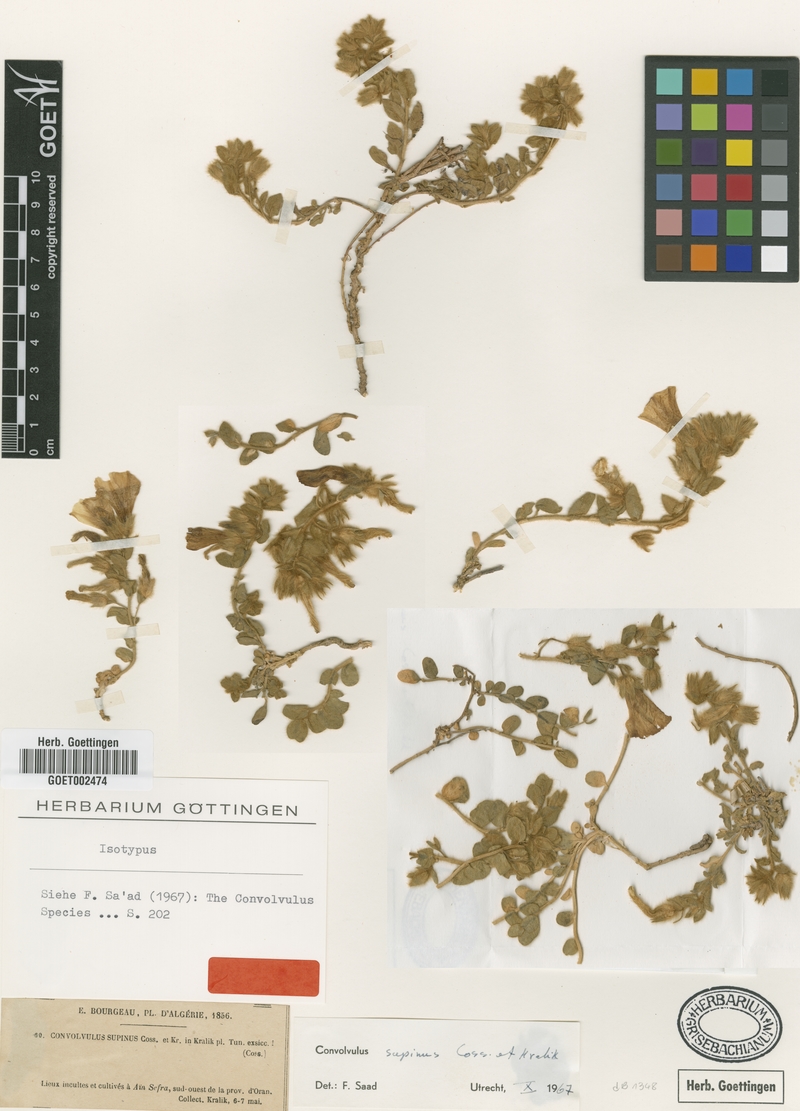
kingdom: Plantae
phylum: Tracheophyta
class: Magnoliopsida
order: Solanales
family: Convolvulaceae
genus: Convolvulus
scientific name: Convolvulus supinus
